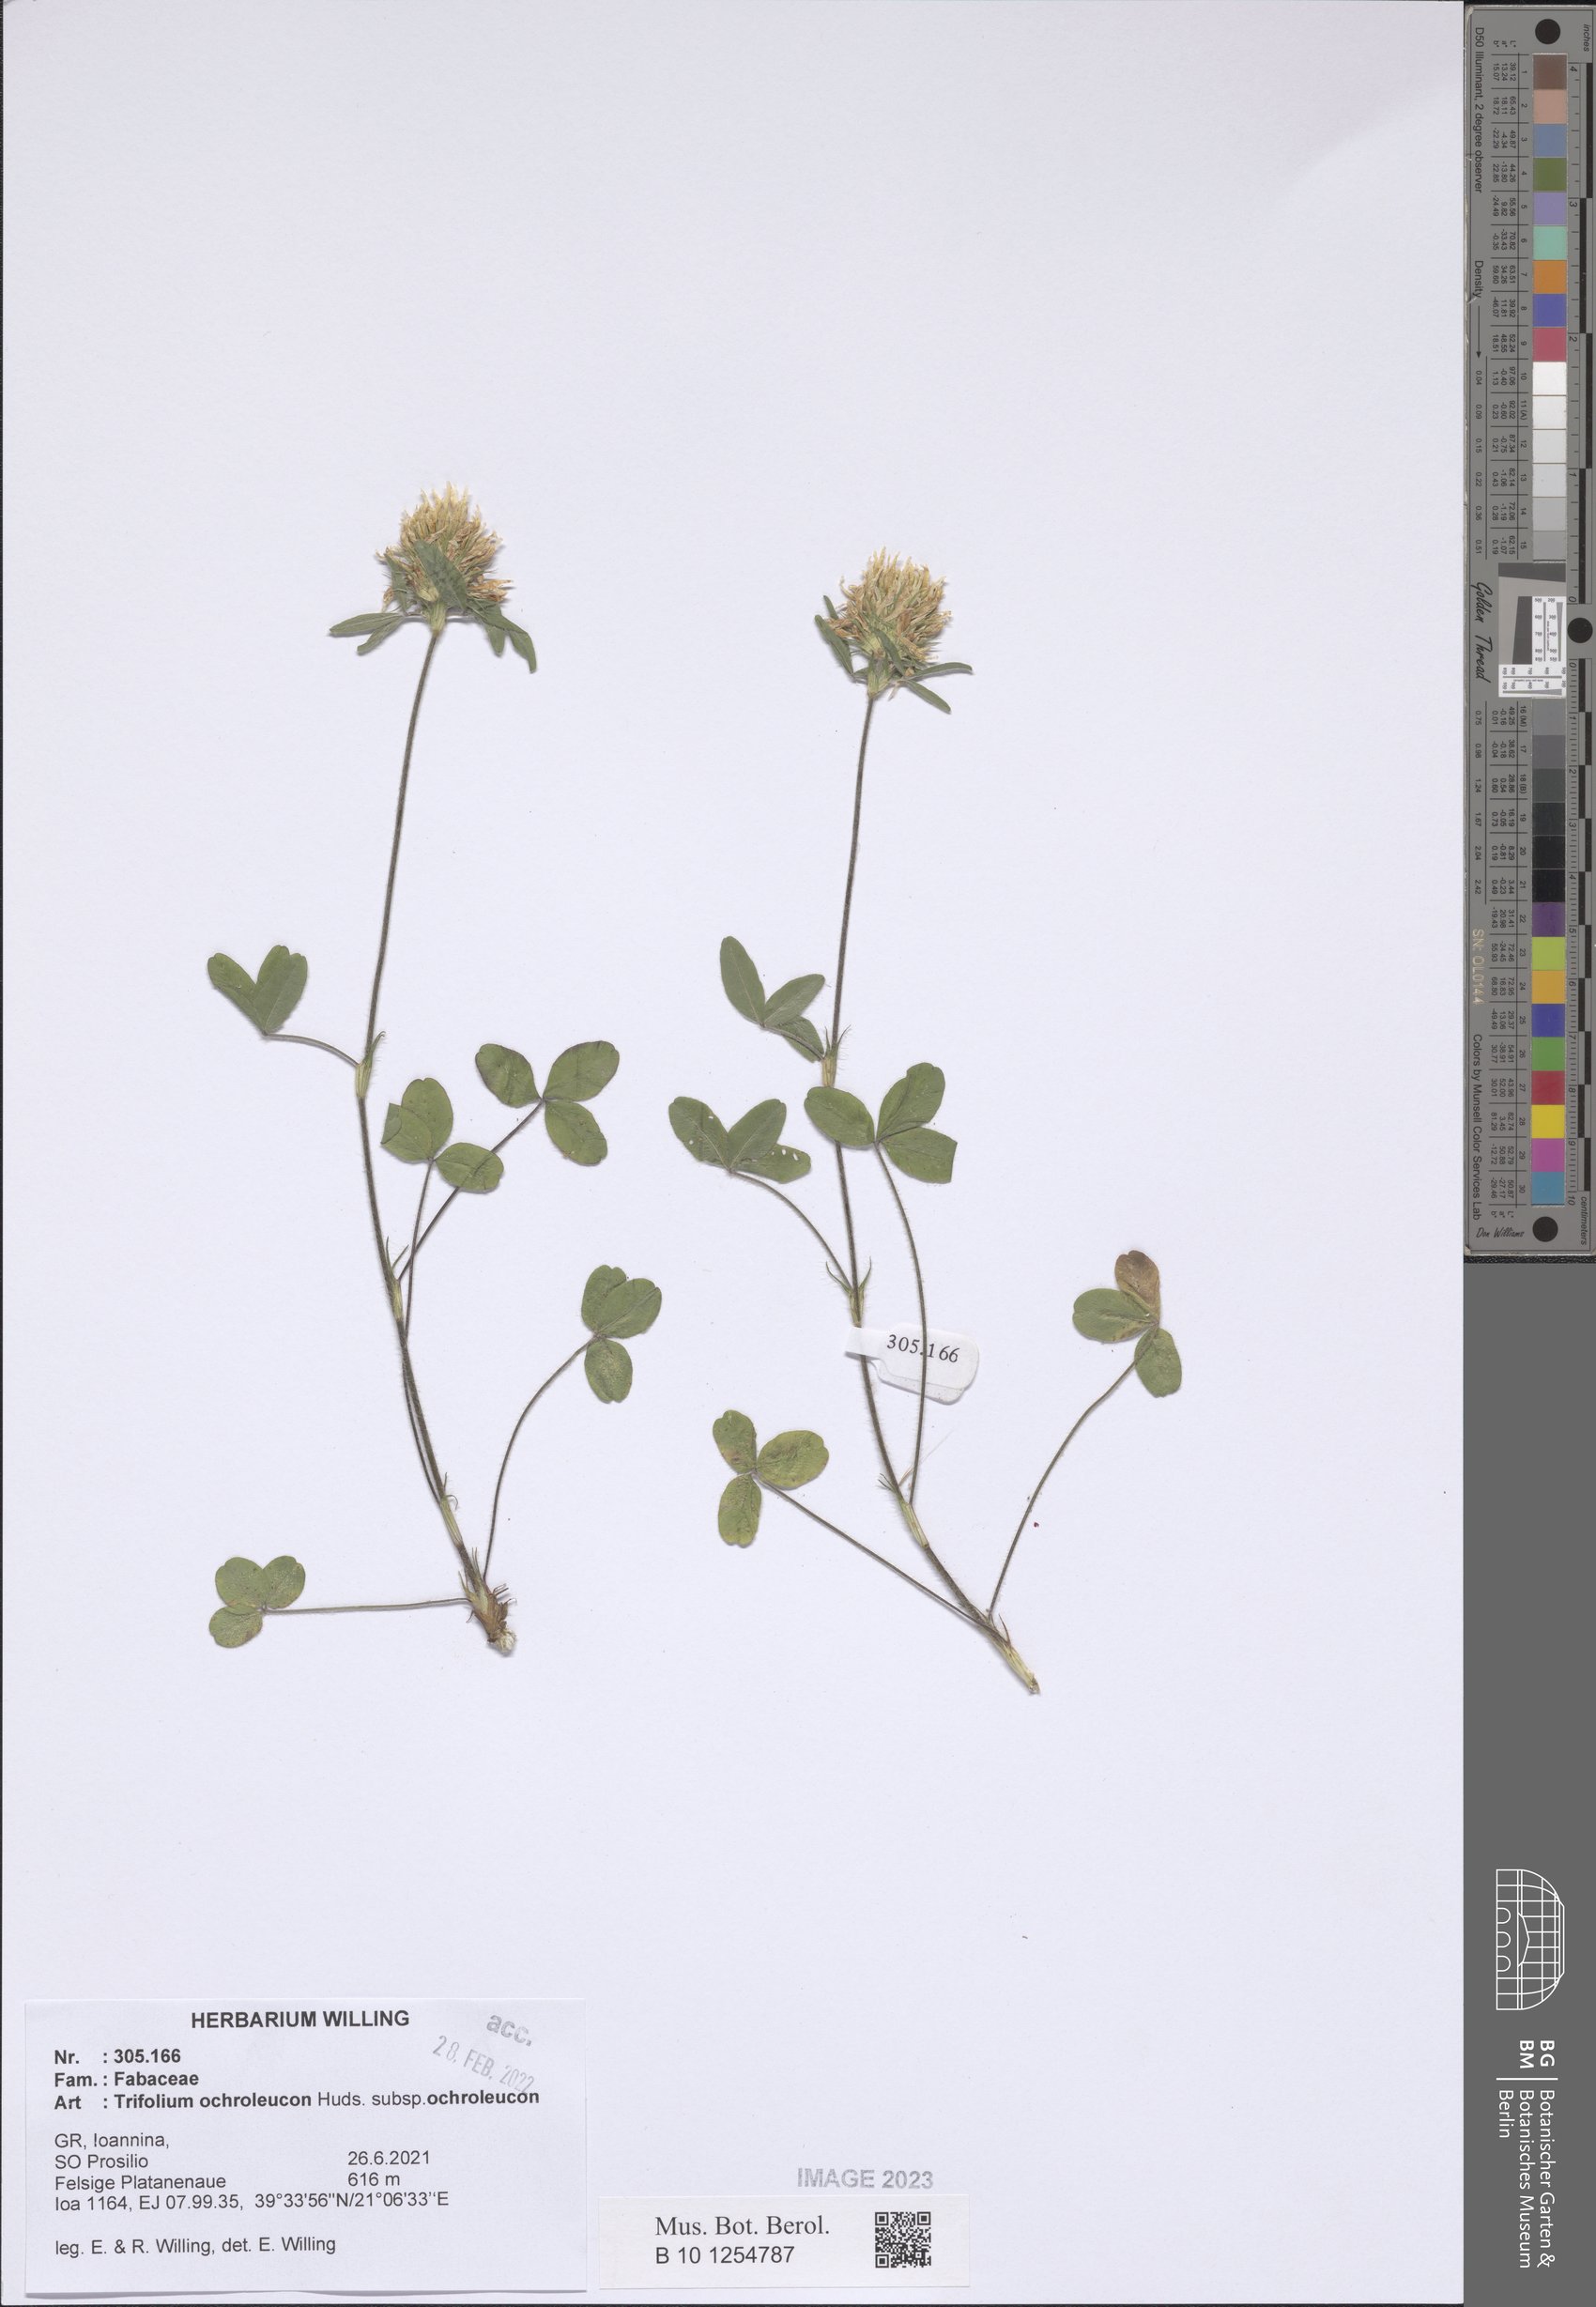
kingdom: Plantae
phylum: Tracheophyta
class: Magnoliopsida
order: Fabales
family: Fabaceae
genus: Trifolium
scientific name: Trifolium ochroleucon
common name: Sulphur clover
